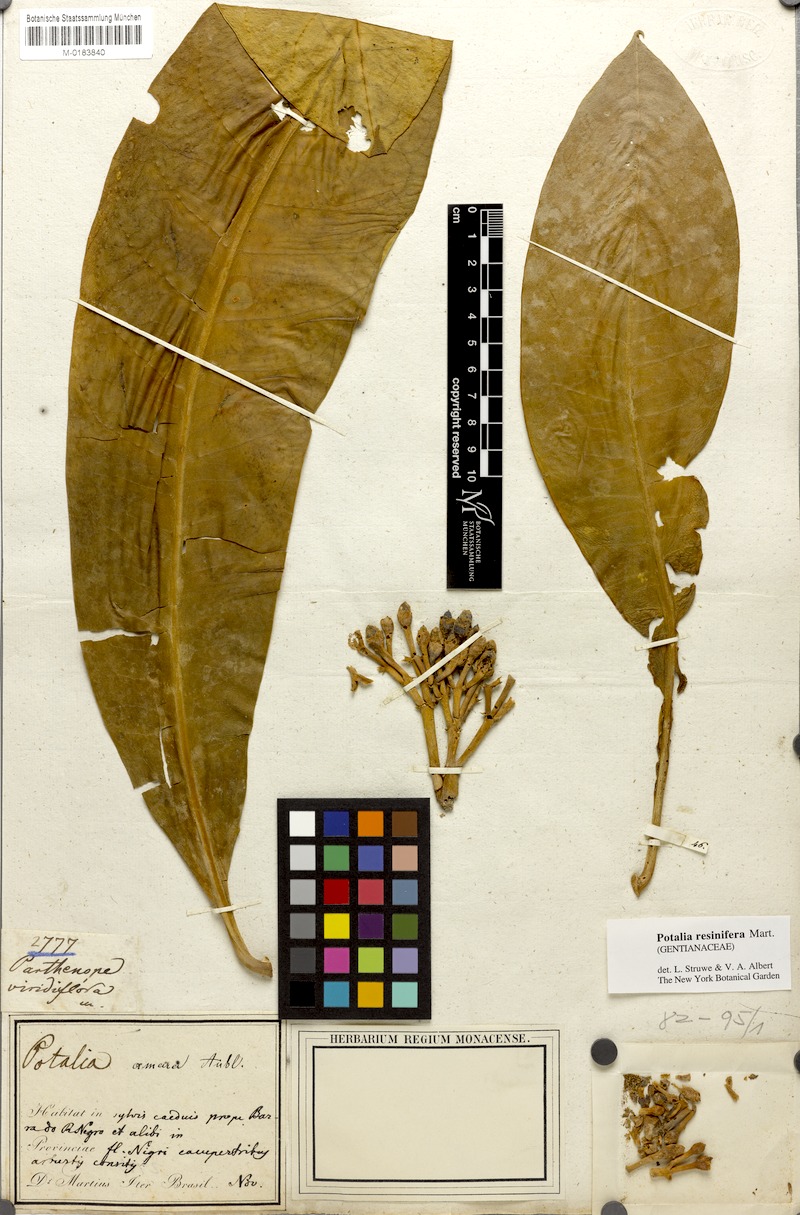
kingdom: Plantae
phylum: Tracheophyta
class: Magnoliopsida
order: Gentianales
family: Gentianaceae
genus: Potalia
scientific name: Potalia resinifera
